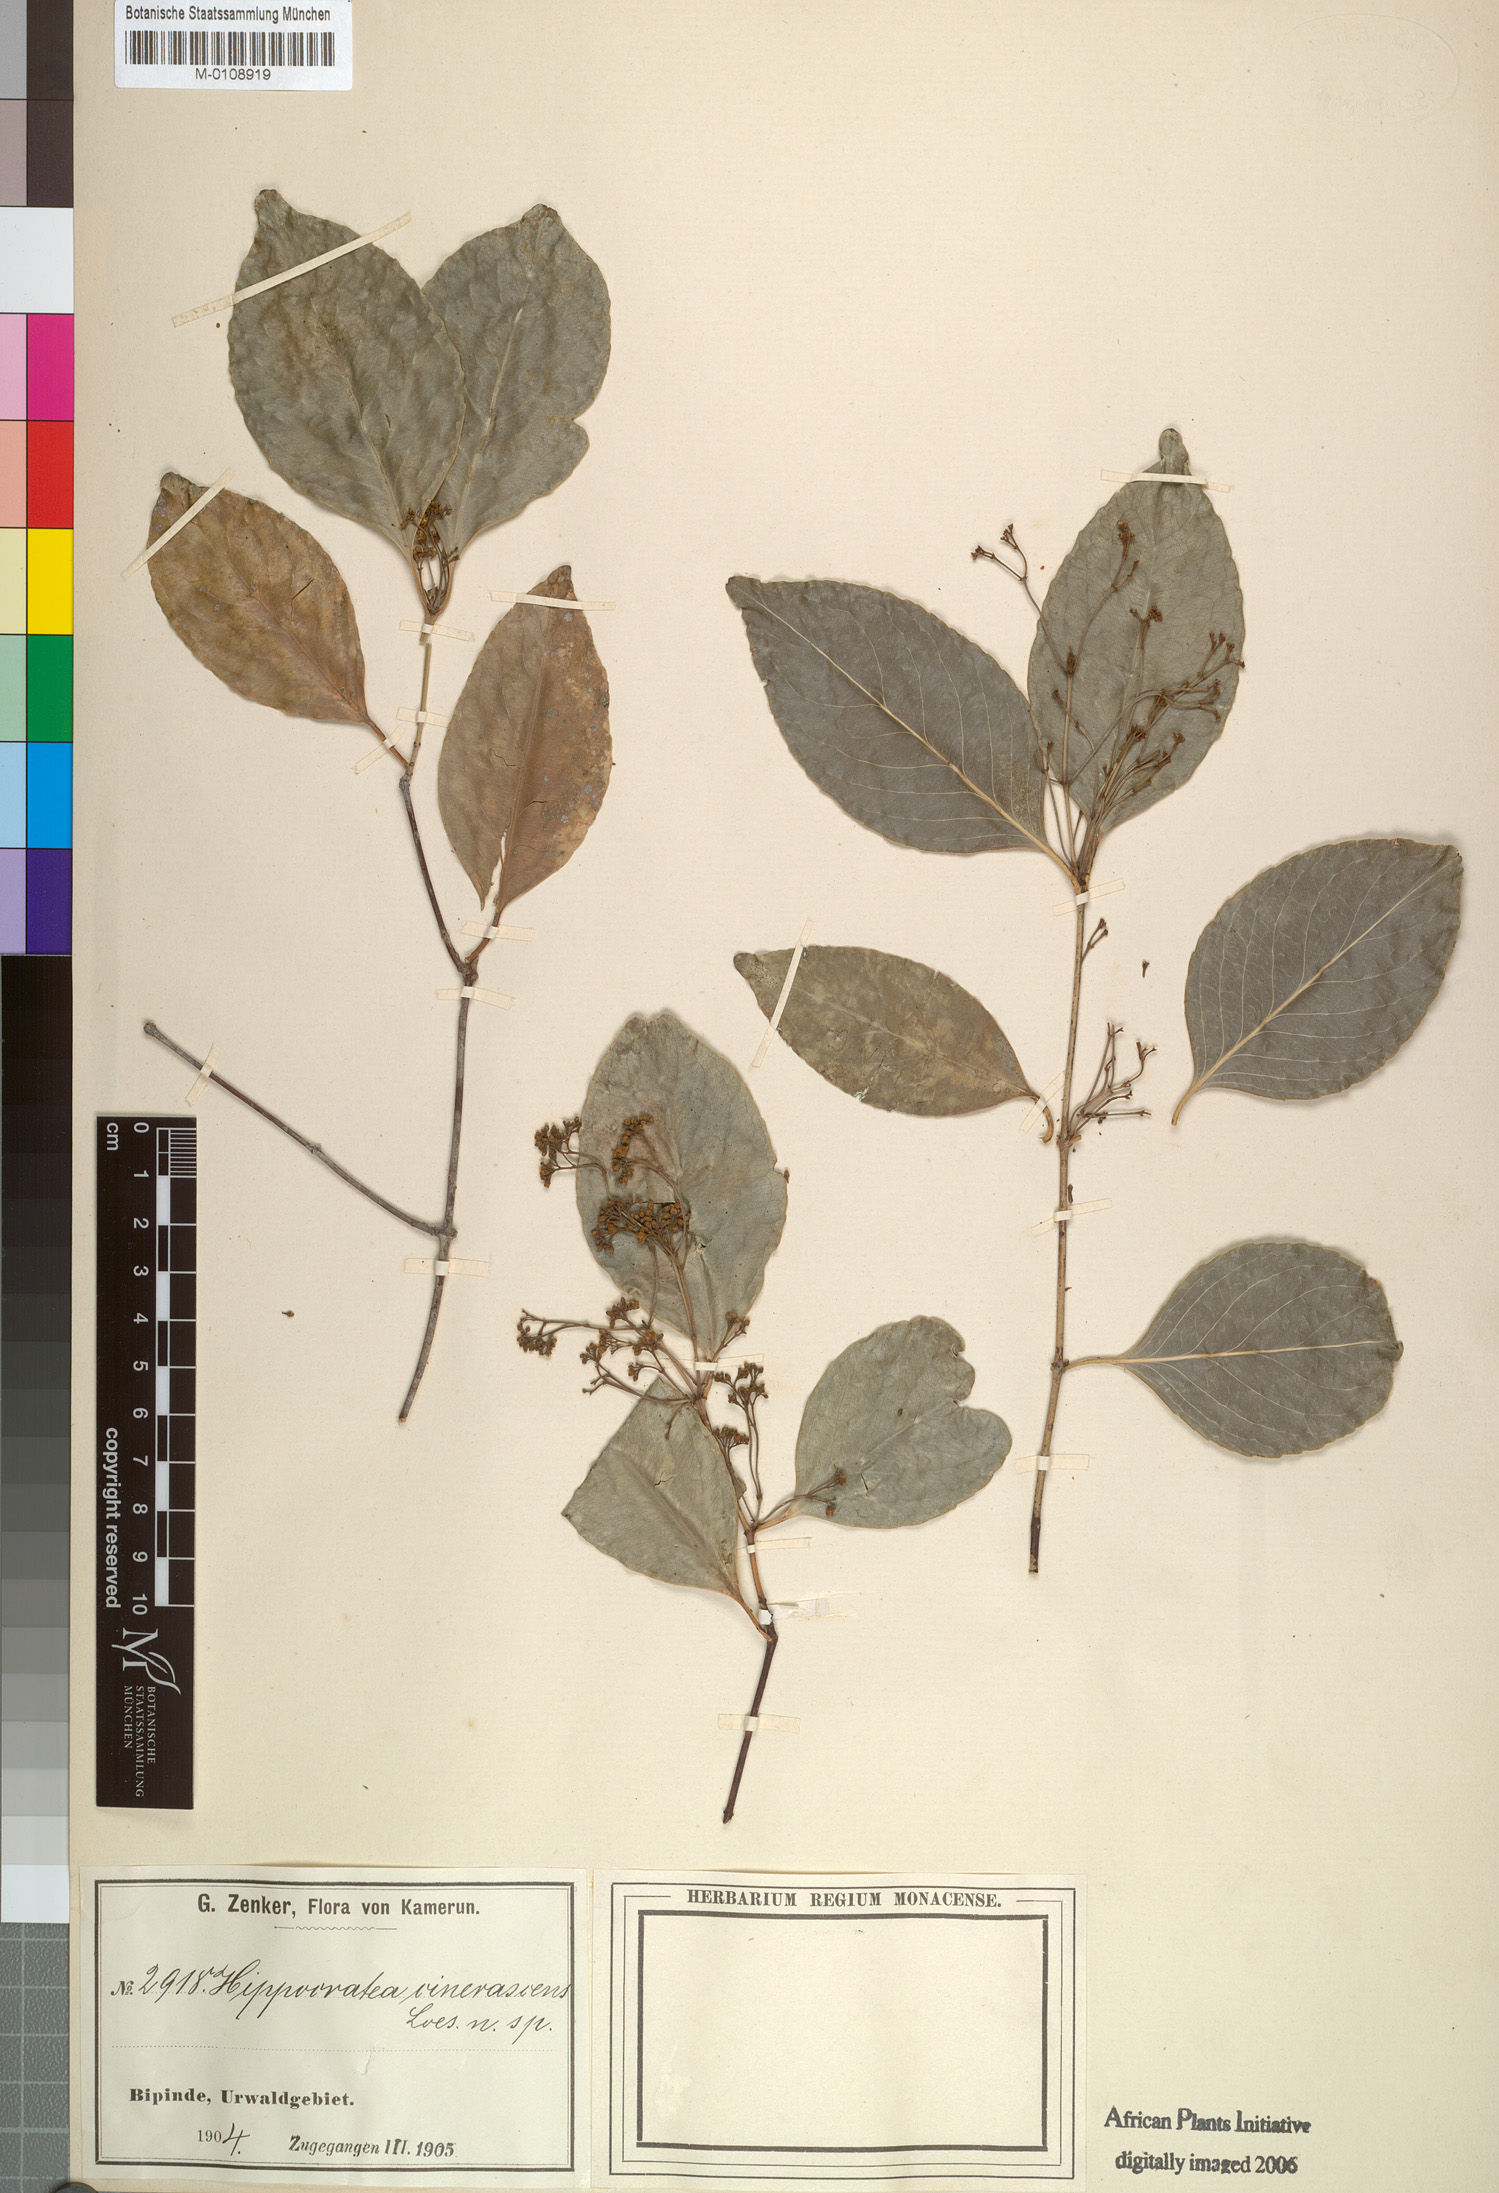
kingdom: Plantae
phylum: Tracheophyta
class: Magnoliopsida
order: Celastrales
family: Celastraceae
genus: Pristimera
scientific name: Pristimera andongensis
